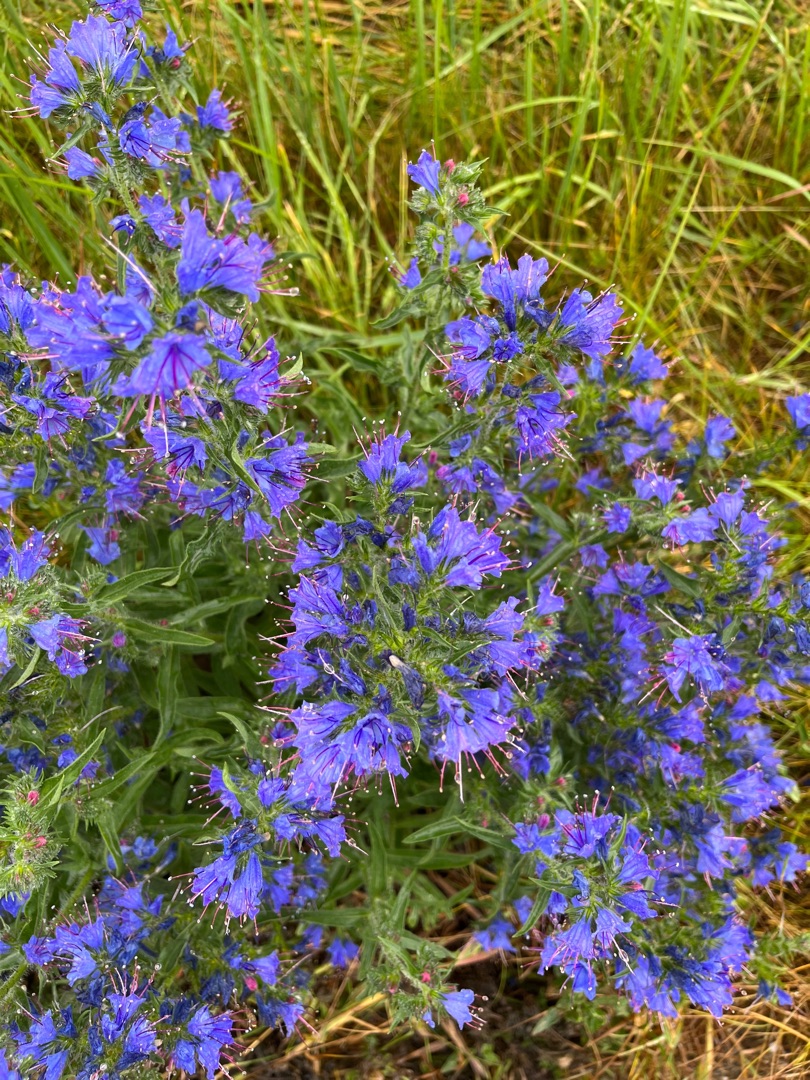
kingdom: Plantae
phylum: Tracheophyta
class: Magnoliopsida
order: Boraginales
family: Boraginaceae
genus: Echium
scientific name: Echium vulgare
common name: Slangehoved
